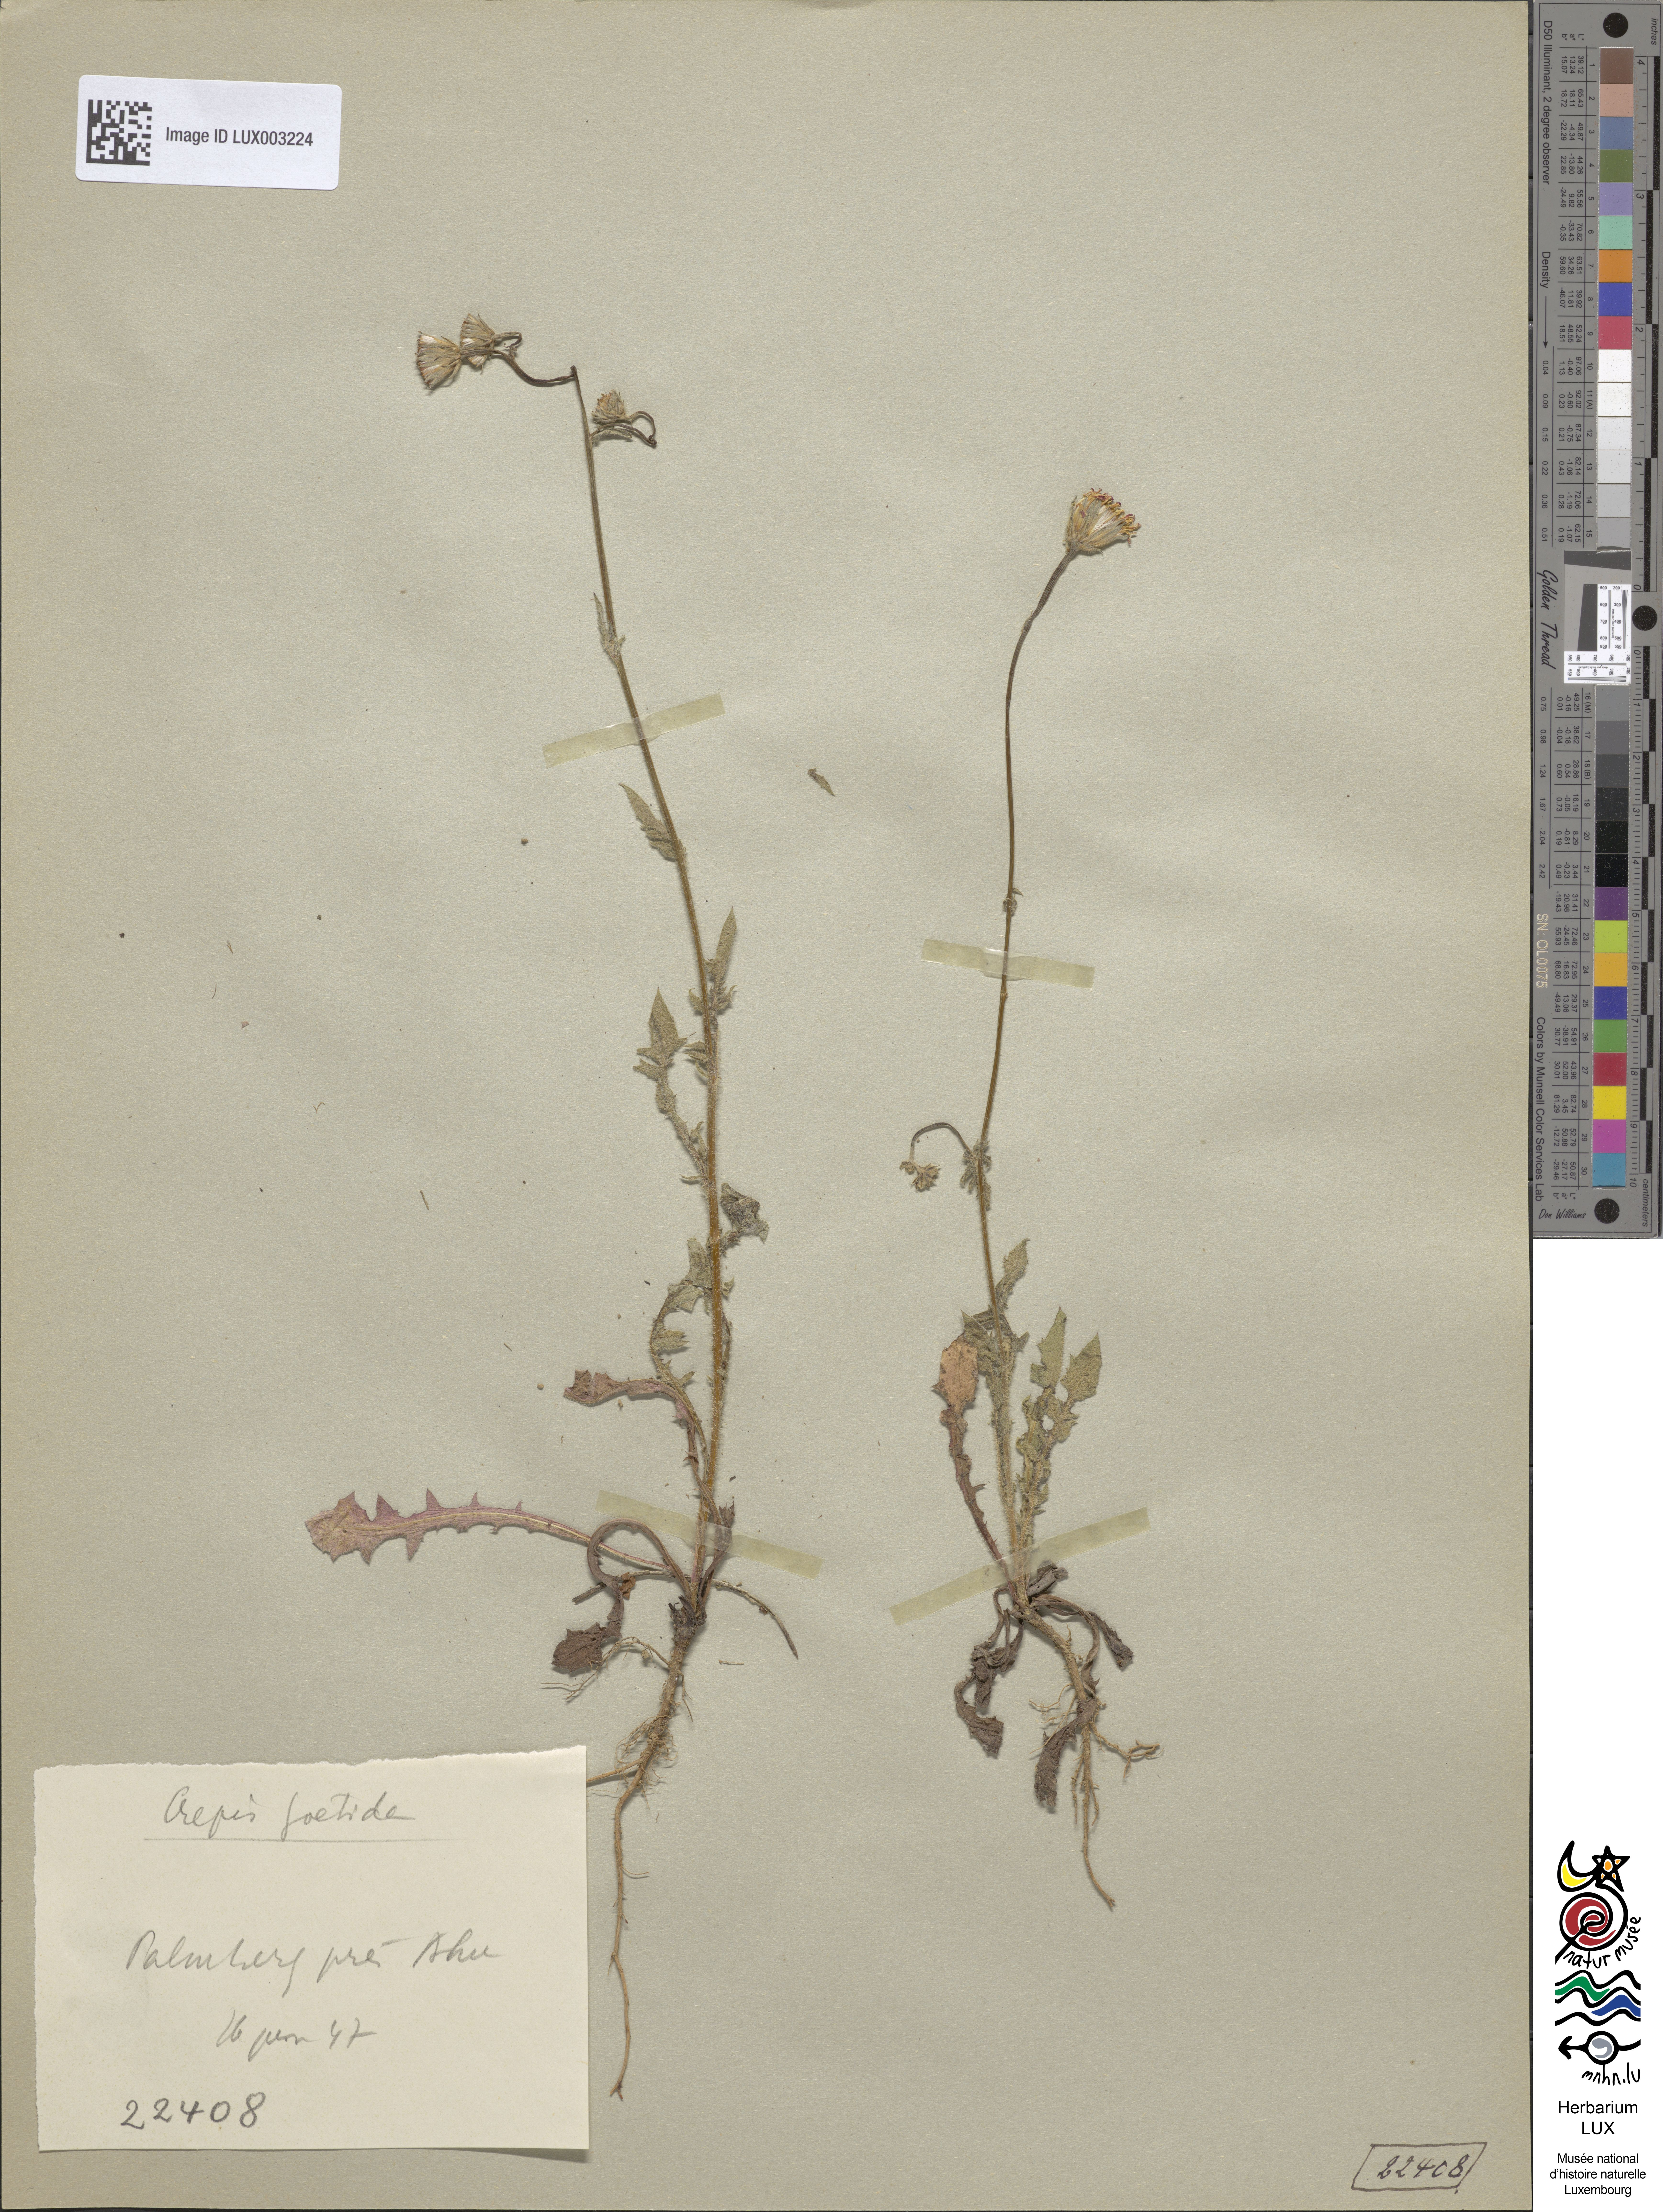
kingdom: Plantae
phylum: Tracheophyta
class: Magnoliopsida
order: Asterales
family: Asteraceae
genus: Crepis
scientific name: Crepis foetida
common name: Stinking hawk's-beard
